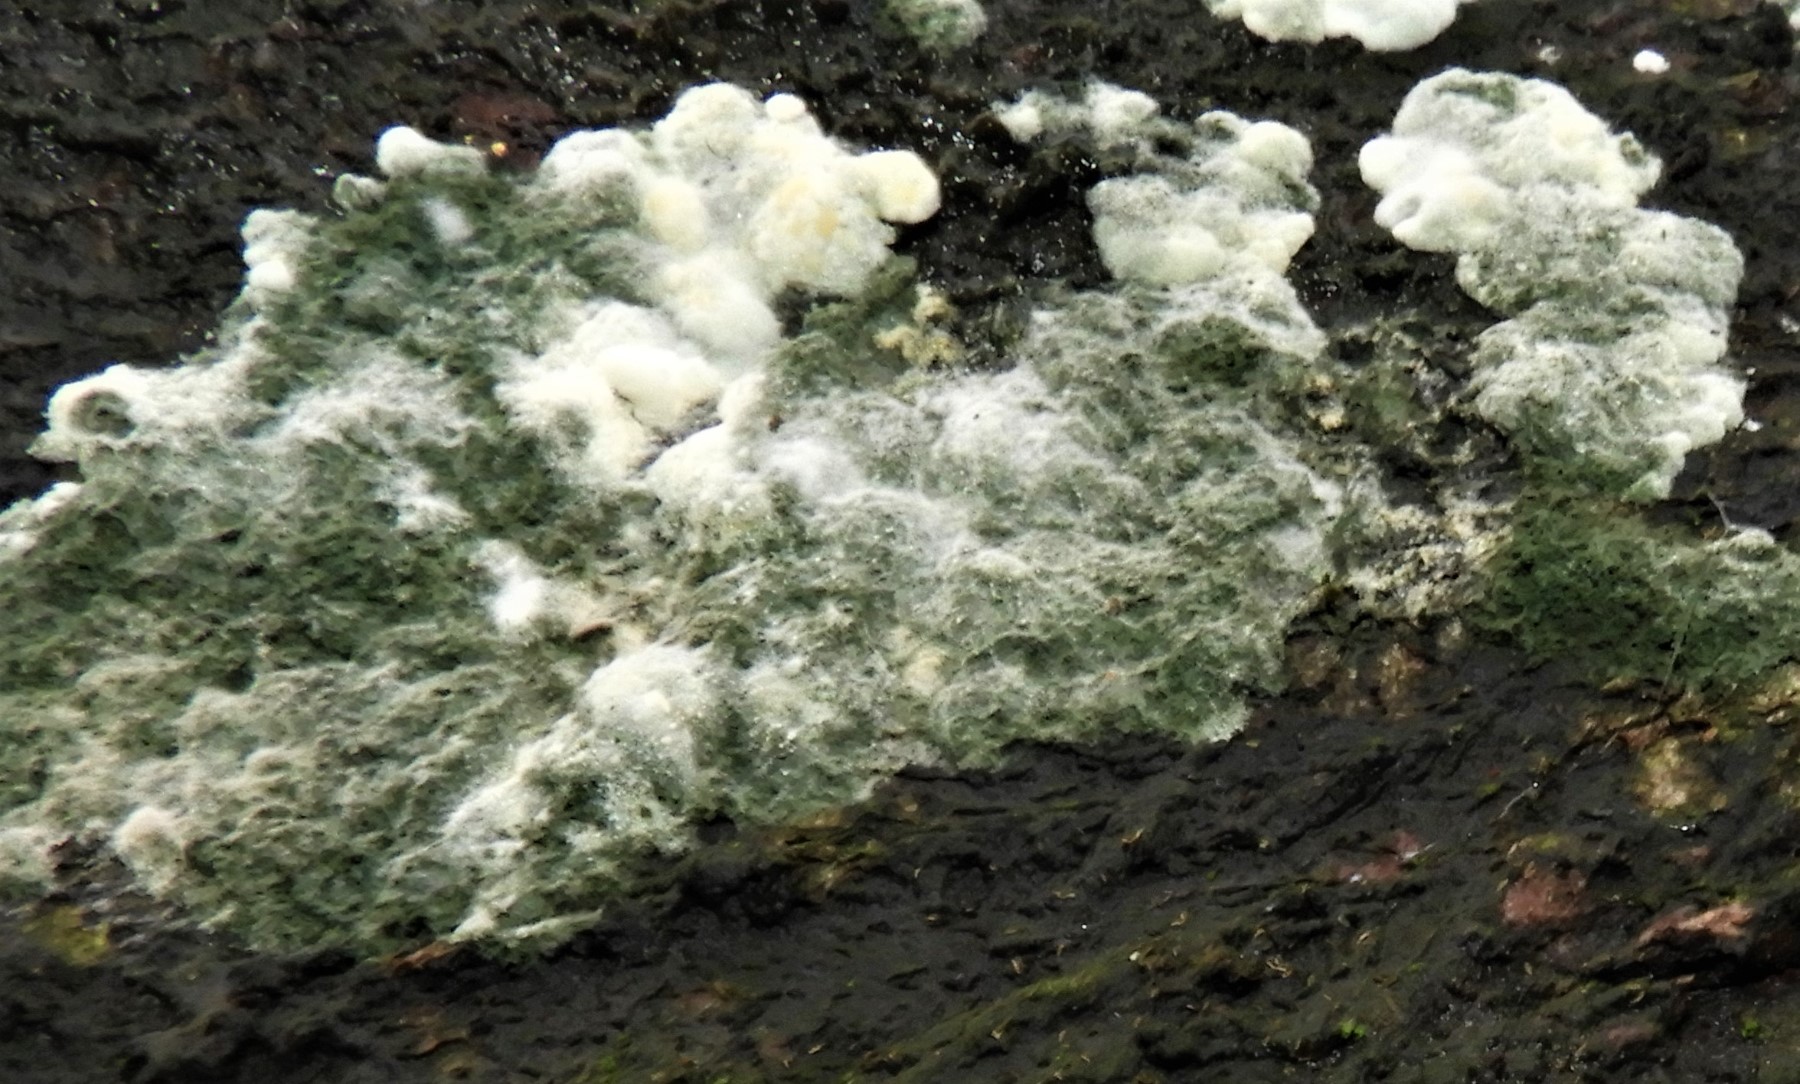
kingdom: Fungi
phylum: Ascomycota
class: Sordariomycetes
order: Hypocreales
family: Hypocreaceae
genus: Trichoderma
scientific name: Trichoderma
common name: kødkerne
